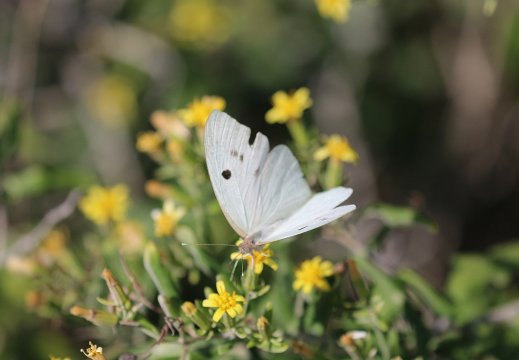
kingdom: Animalia
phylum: Arthropoda
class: Insecta
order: Lepidoptera
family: Pieridae
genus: Ganyra
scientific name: Ganyra josephina
